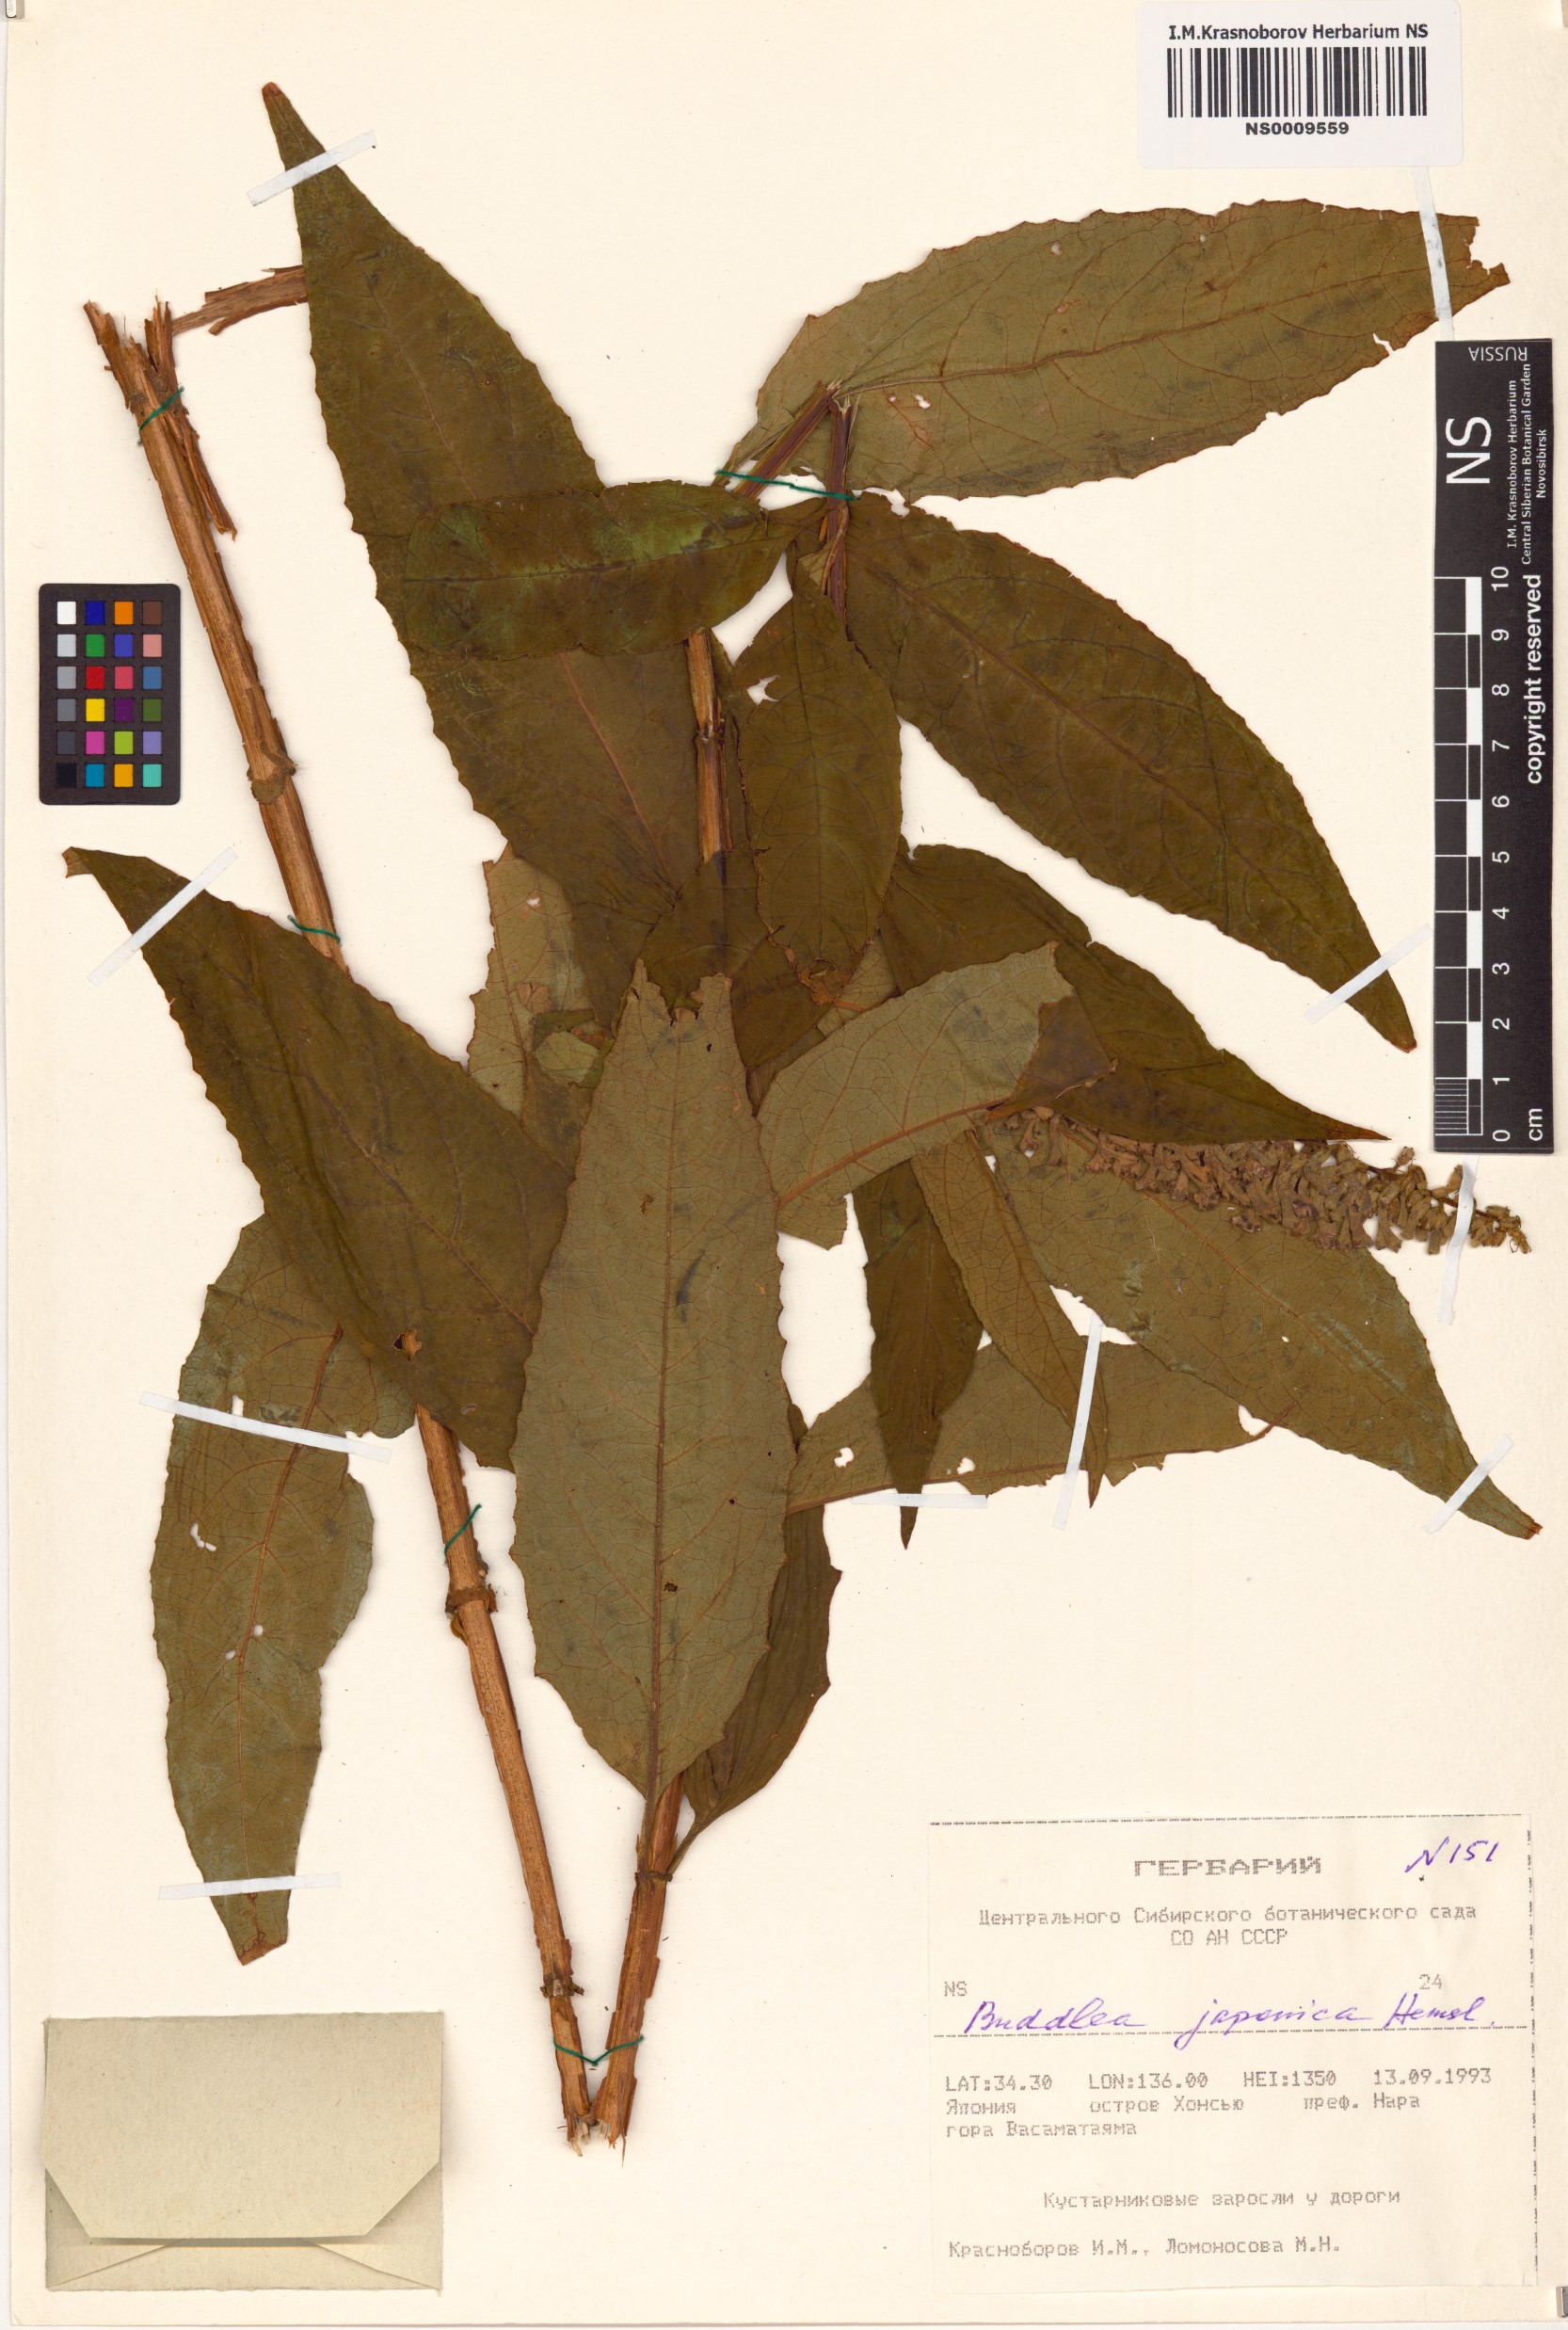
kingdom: Plantae
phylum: Tracheophyta
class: Magnoliopsida
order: Lamiales
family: Scrophulariaceae
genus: Buddleja
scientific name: Buddleja japonica
